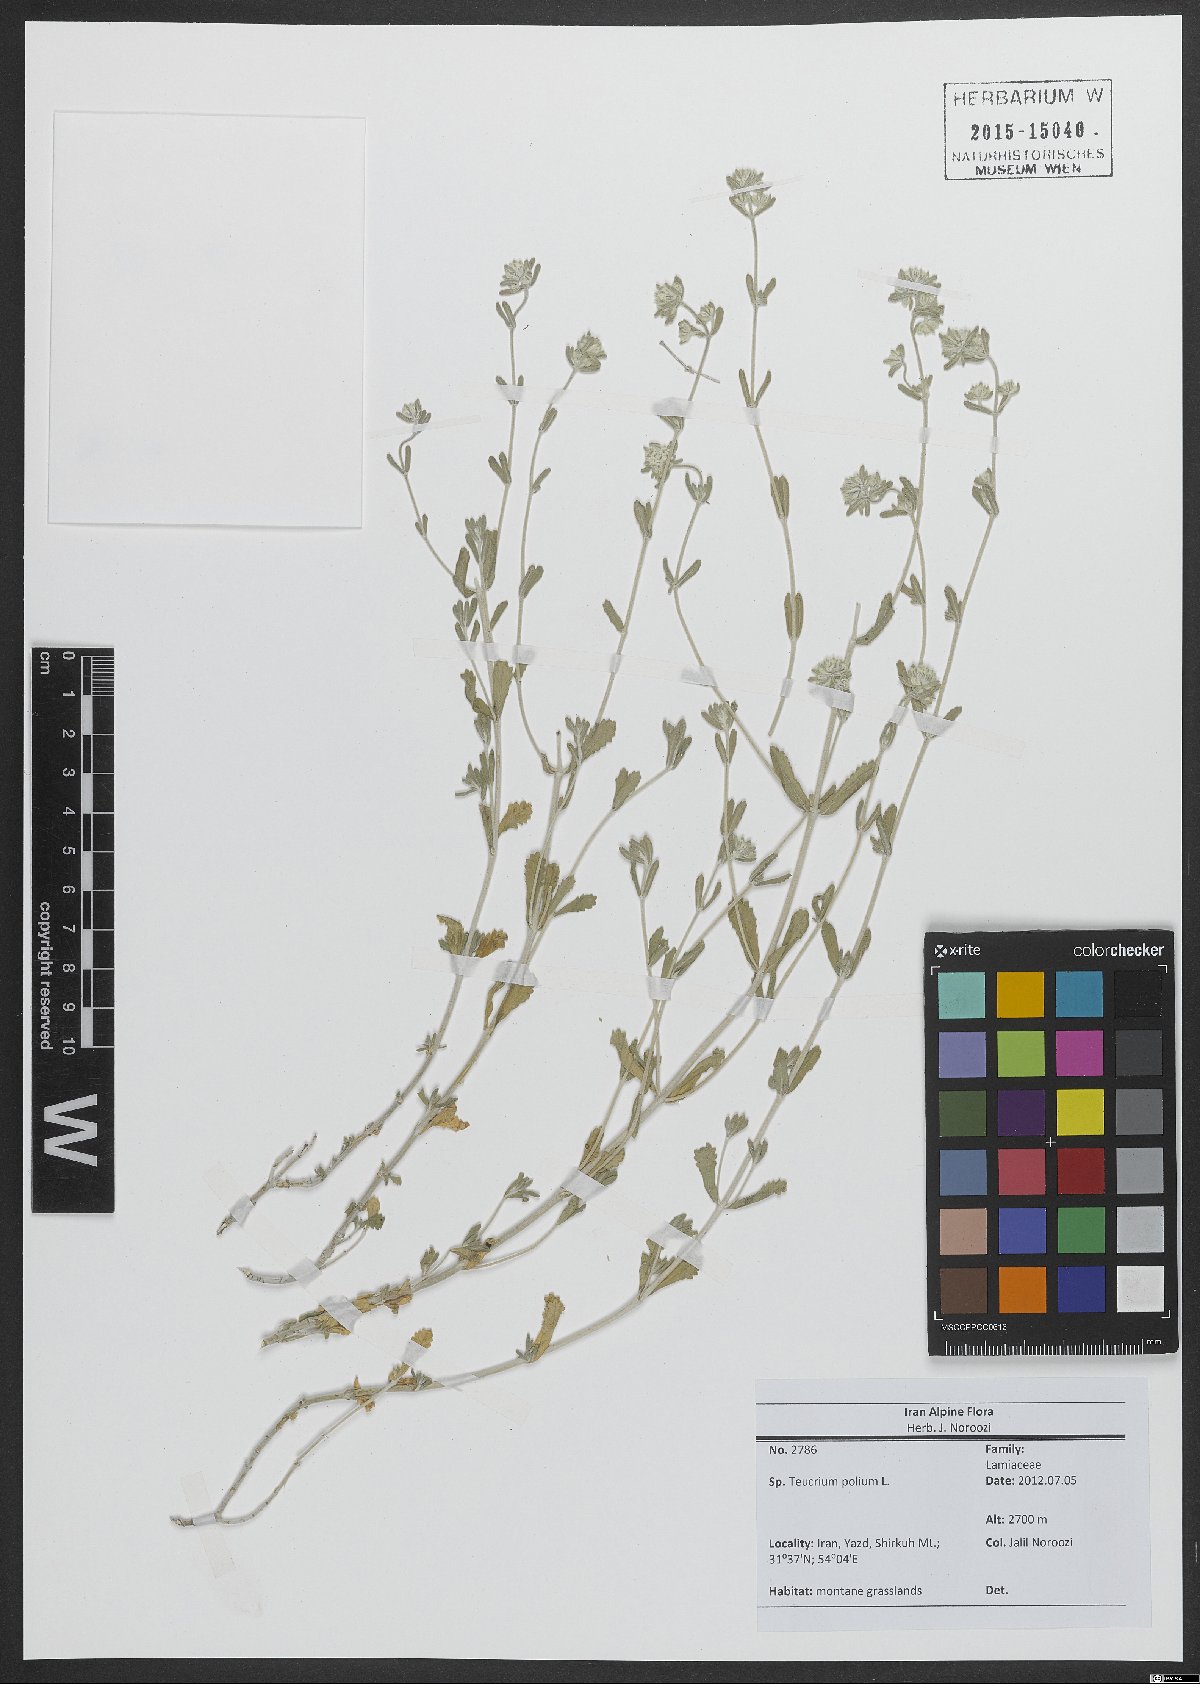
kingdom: Plantae
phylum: Tracheophyta
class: Magnoliopsida
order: Lamiales
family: Lamiaceae
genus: Teucrium
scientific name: Teucrium polium
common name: Poley
